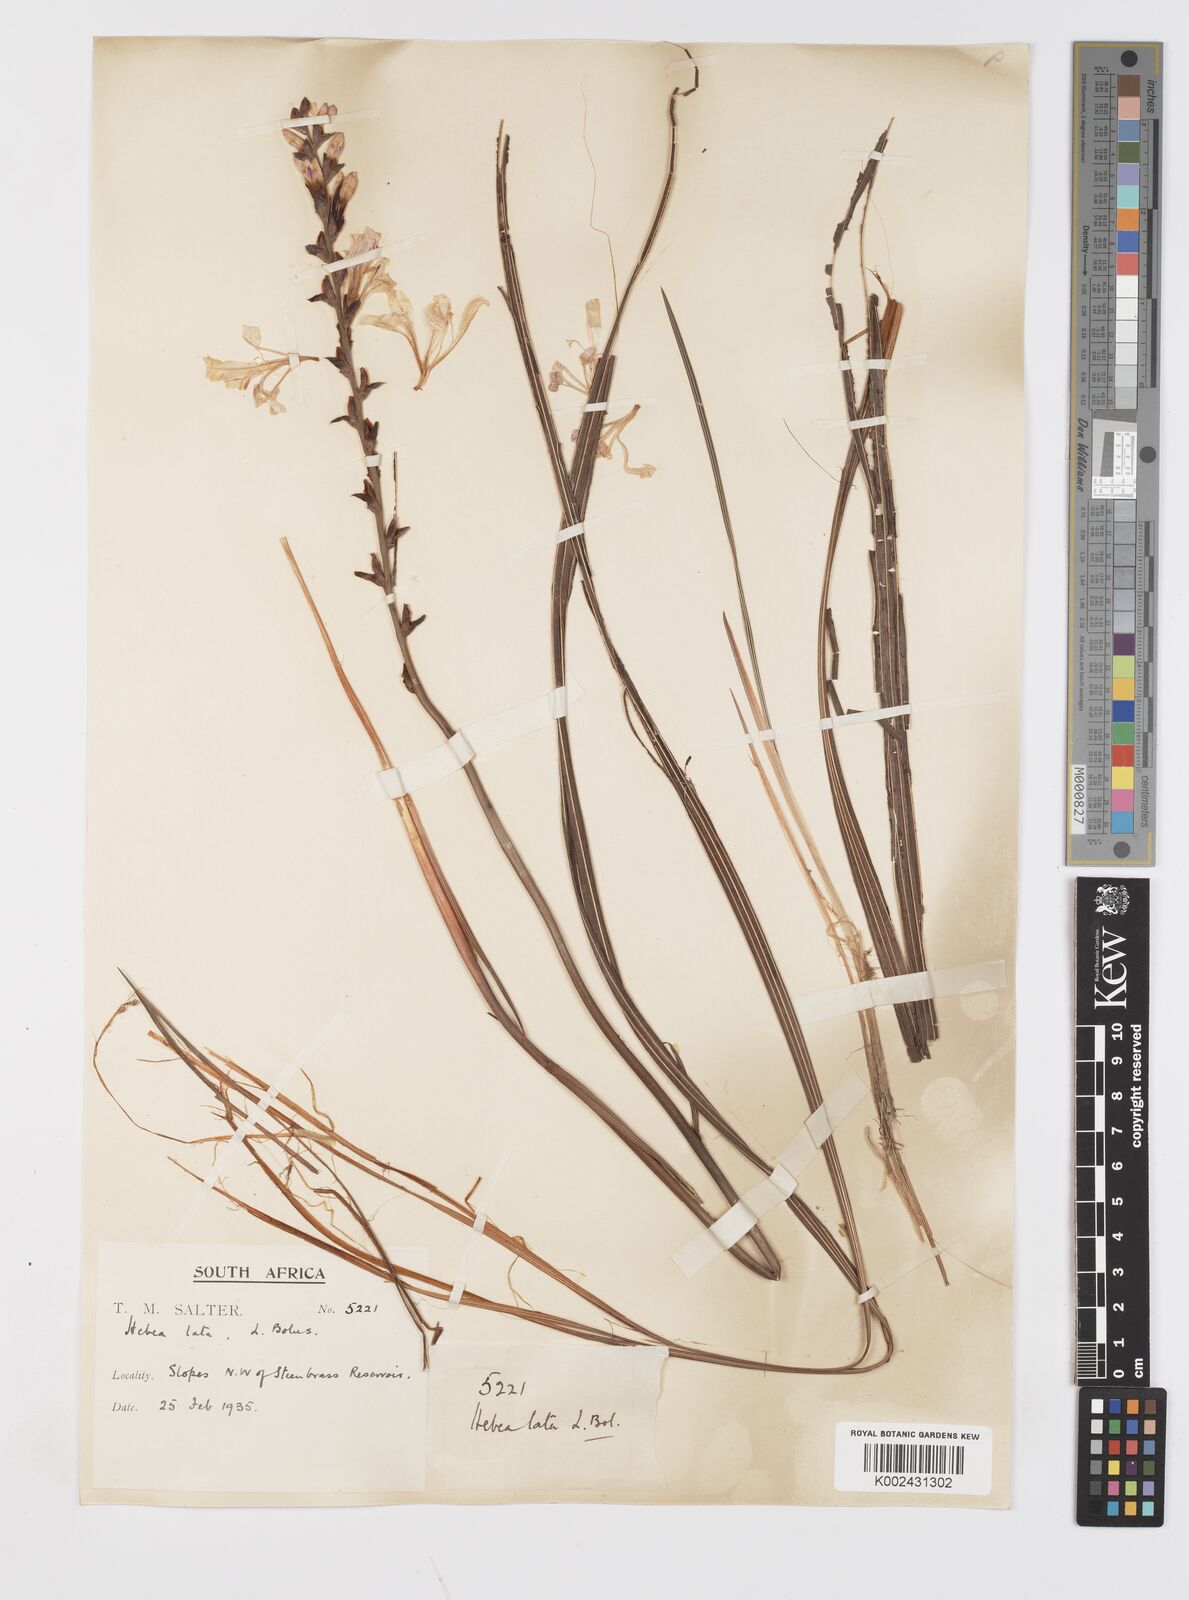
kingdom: Plantae
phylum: Tracheophyta
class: Liliopsida
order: Asparagales
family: Iridaceae
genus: Tritoniopsis
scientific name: Tritoniopsis lata
